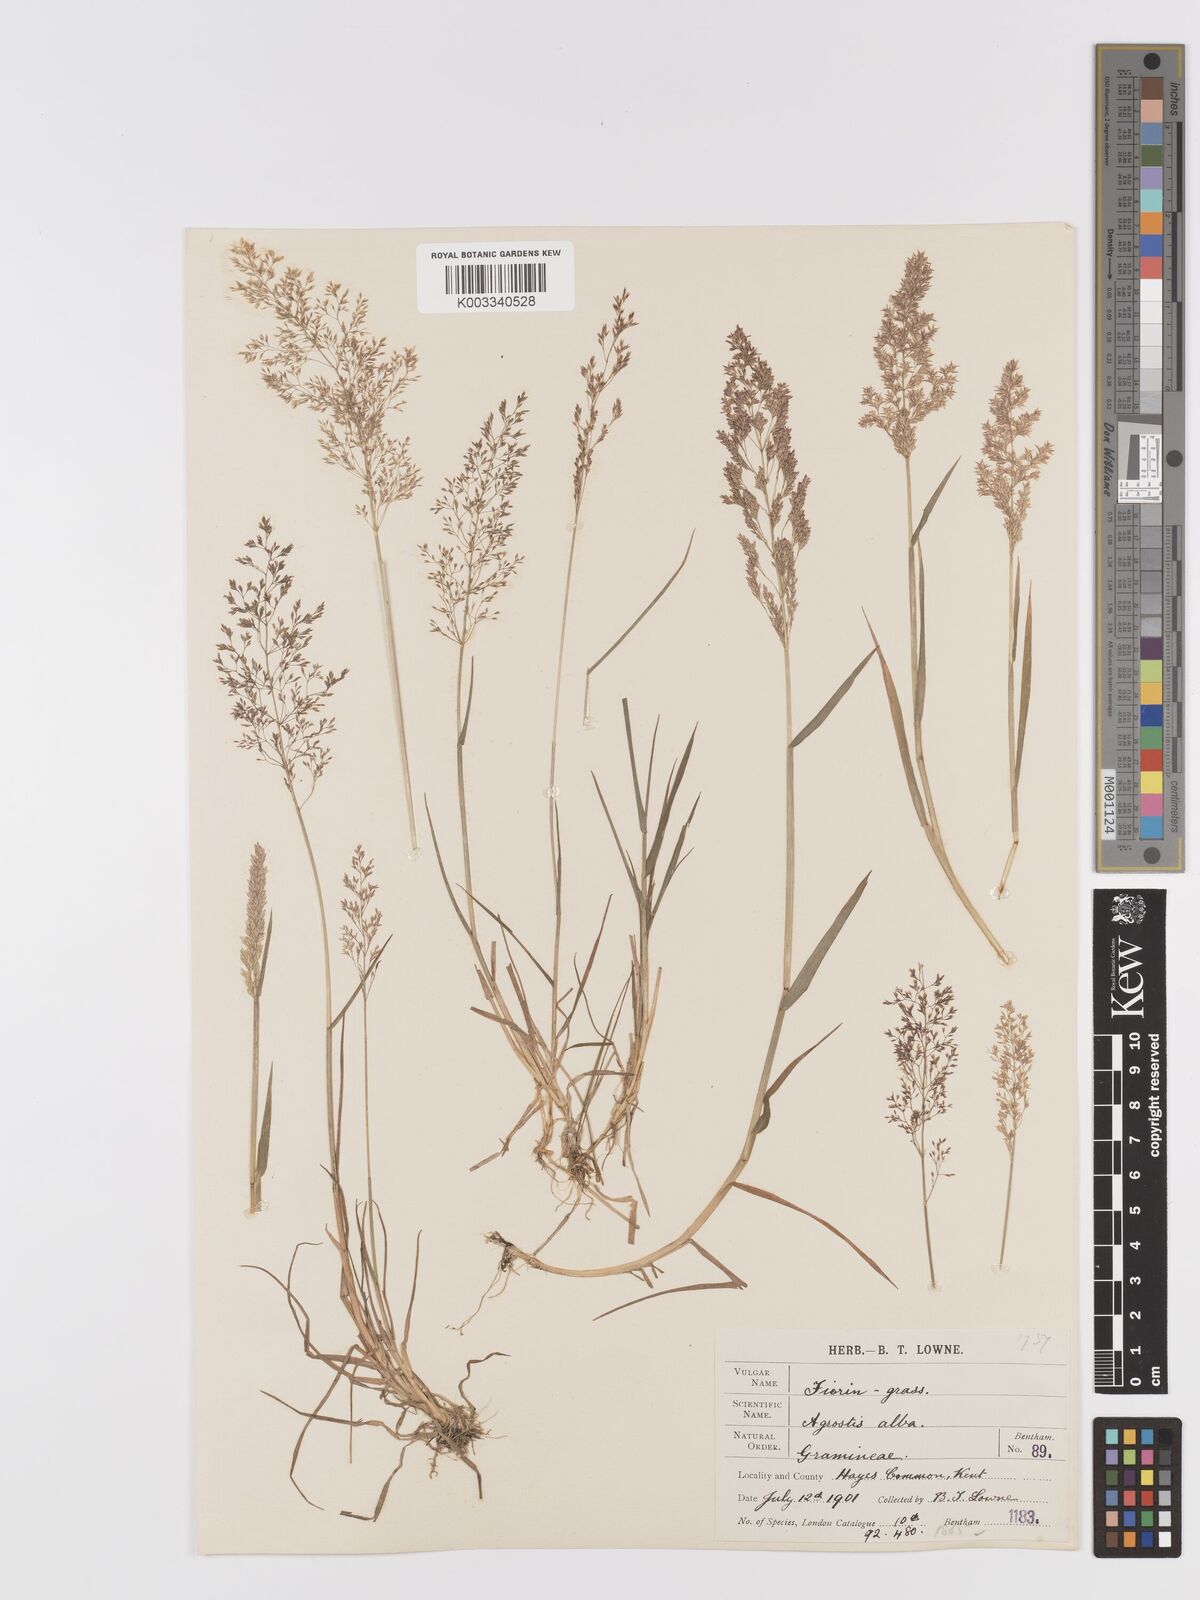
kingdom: Plantae
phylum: Tracheophyta
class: Liliopsida
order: Poales
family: Poaceae
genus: Agrostis
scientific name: Agrostis capillaris
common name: Colonial bentgrass
